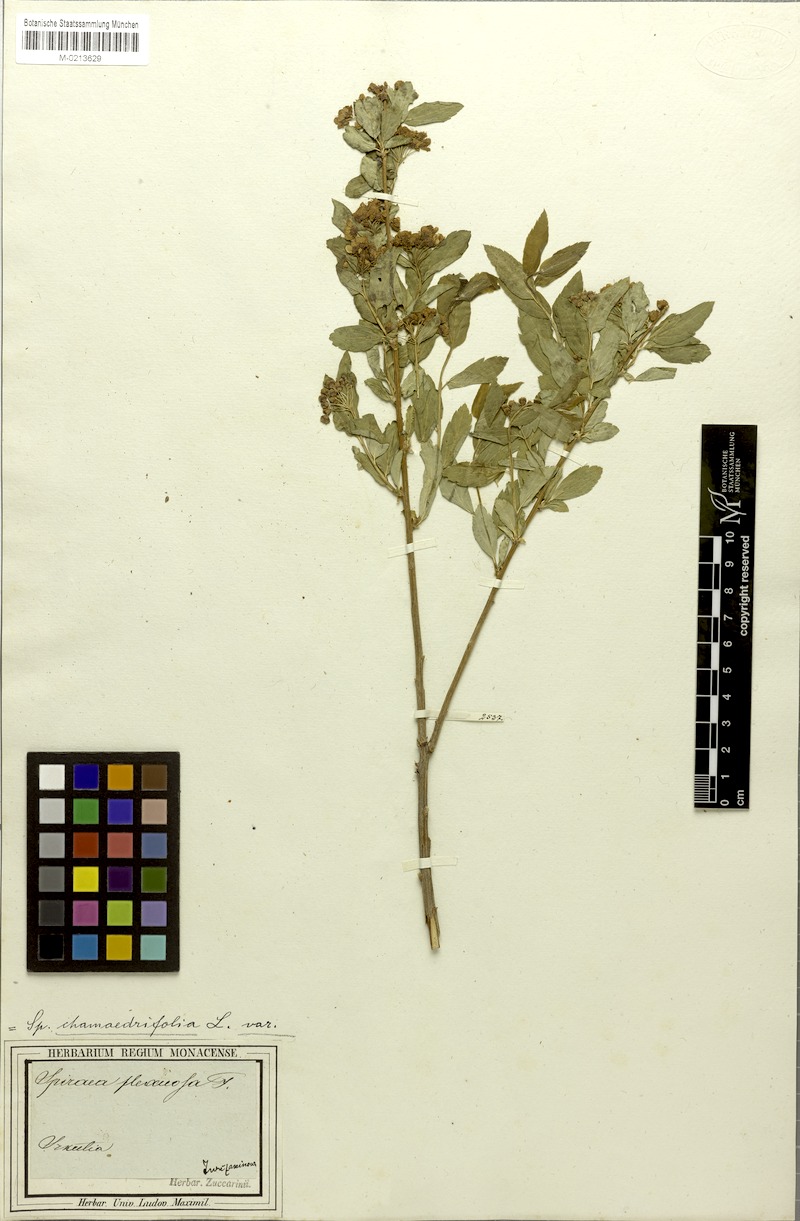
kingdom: Plantae
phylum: Tracheophyta
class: Magnoliopsida
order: Rosales
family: Rosaceae
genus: Spiraea
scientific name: Spiraea flexuosa
